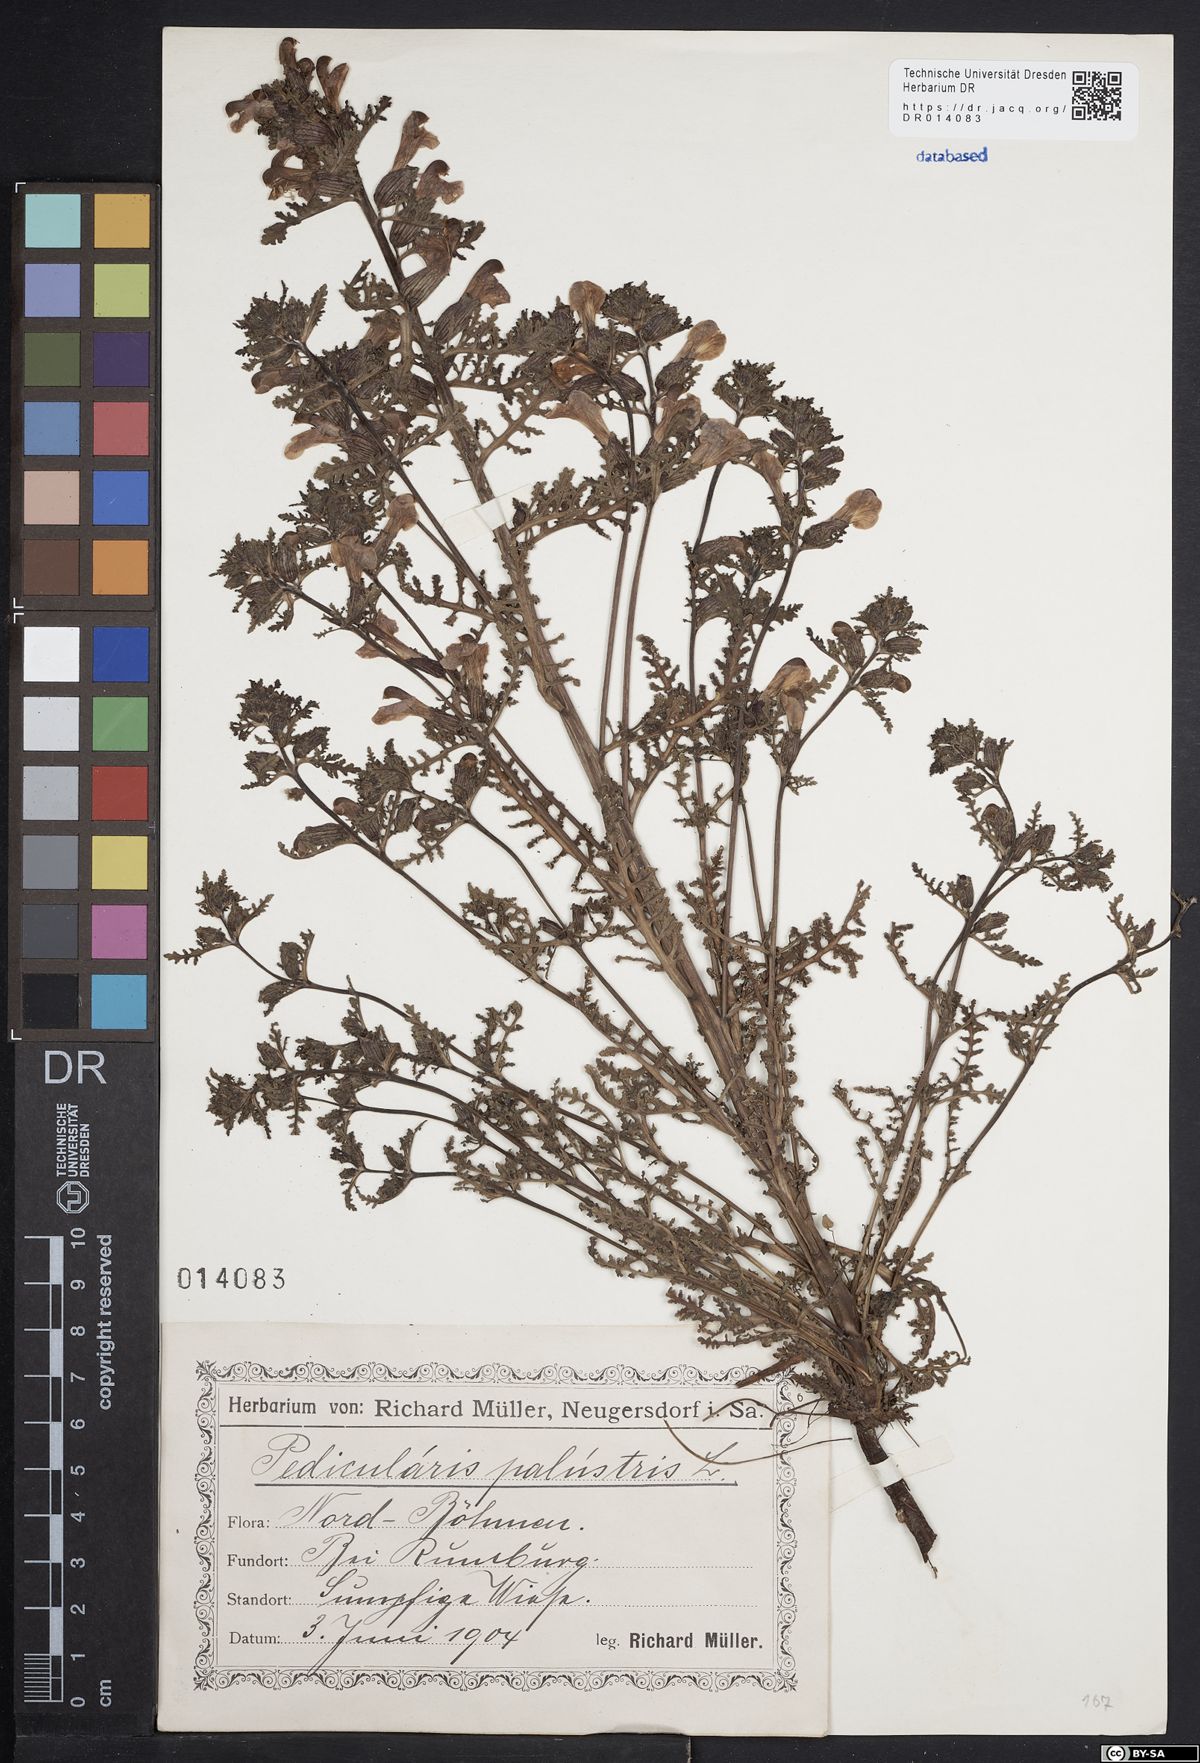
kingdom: Plantae
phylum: Tracheophyta
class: Magnoliopsida
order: Lamiales
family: Orobanchaceae
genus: Pedicularis
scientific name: Pedicularis palustris
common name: Marsh lousewort
